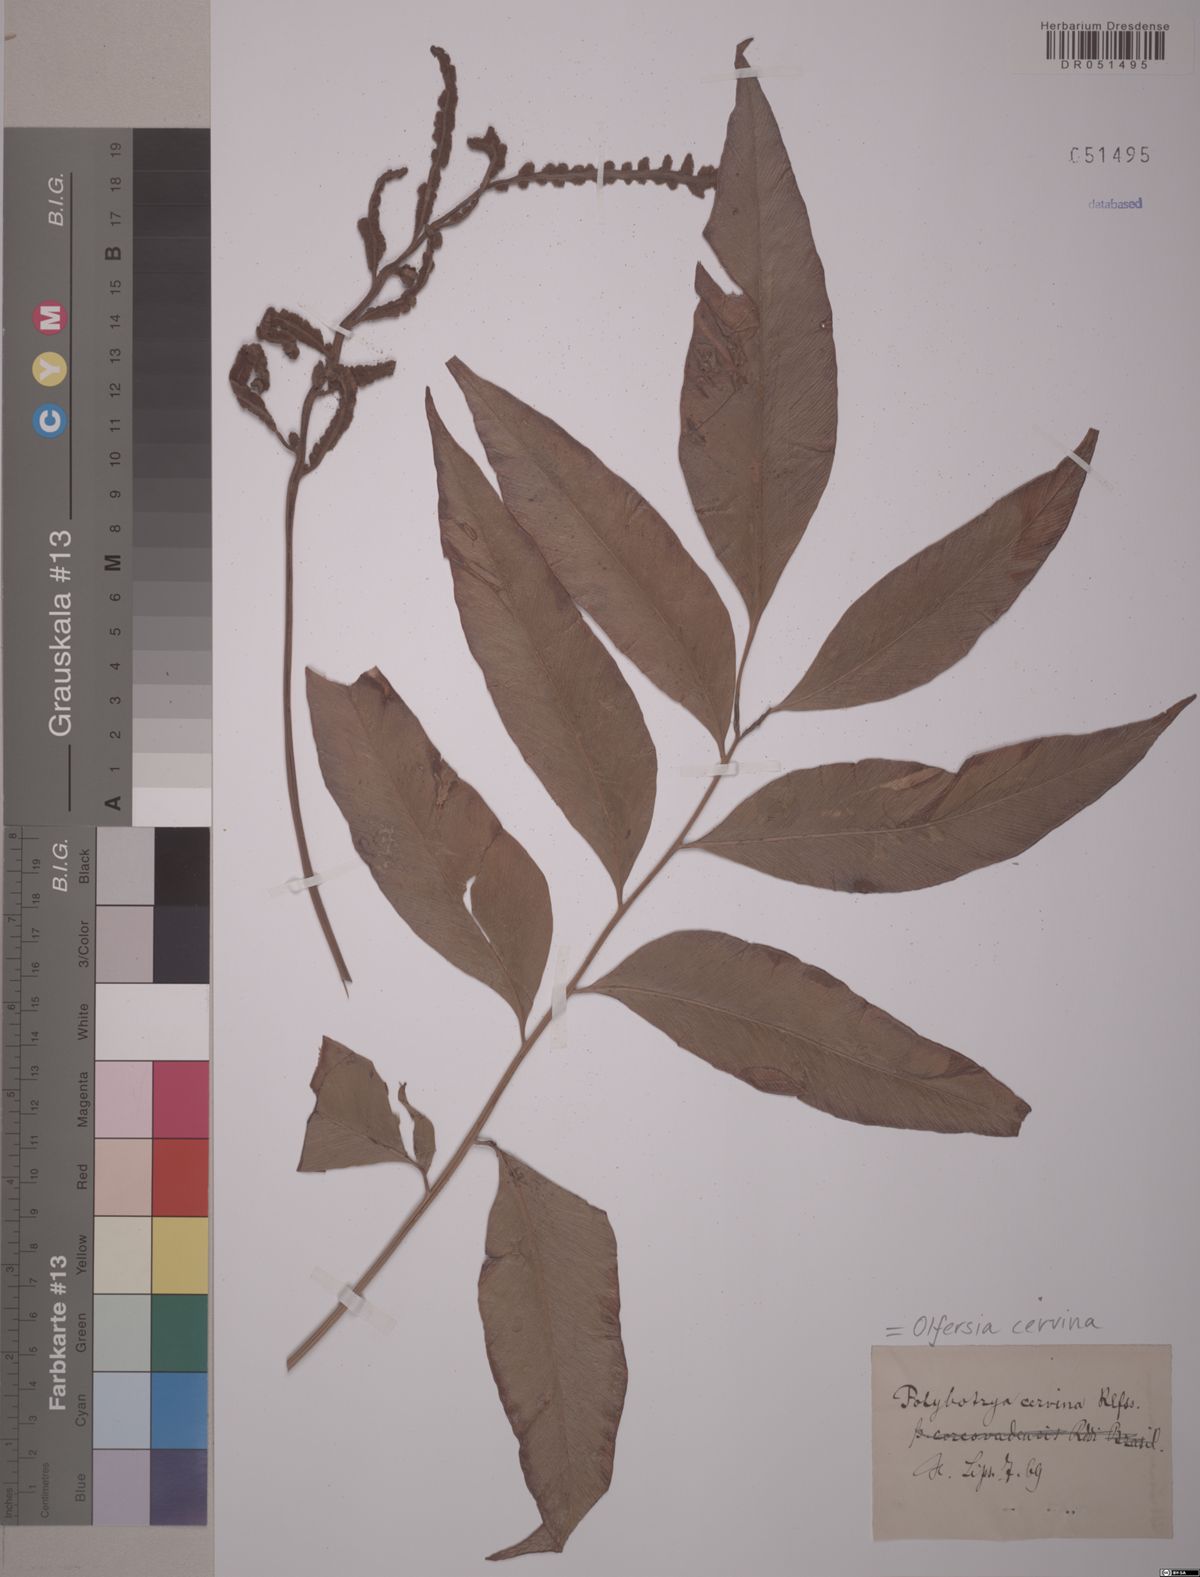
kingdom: Plantae
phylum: Tracheophyta
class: Polypodiopsida
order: Polypodiales
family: Dryopteridaceae
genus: Olfersia
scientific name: Olfersia cervina
